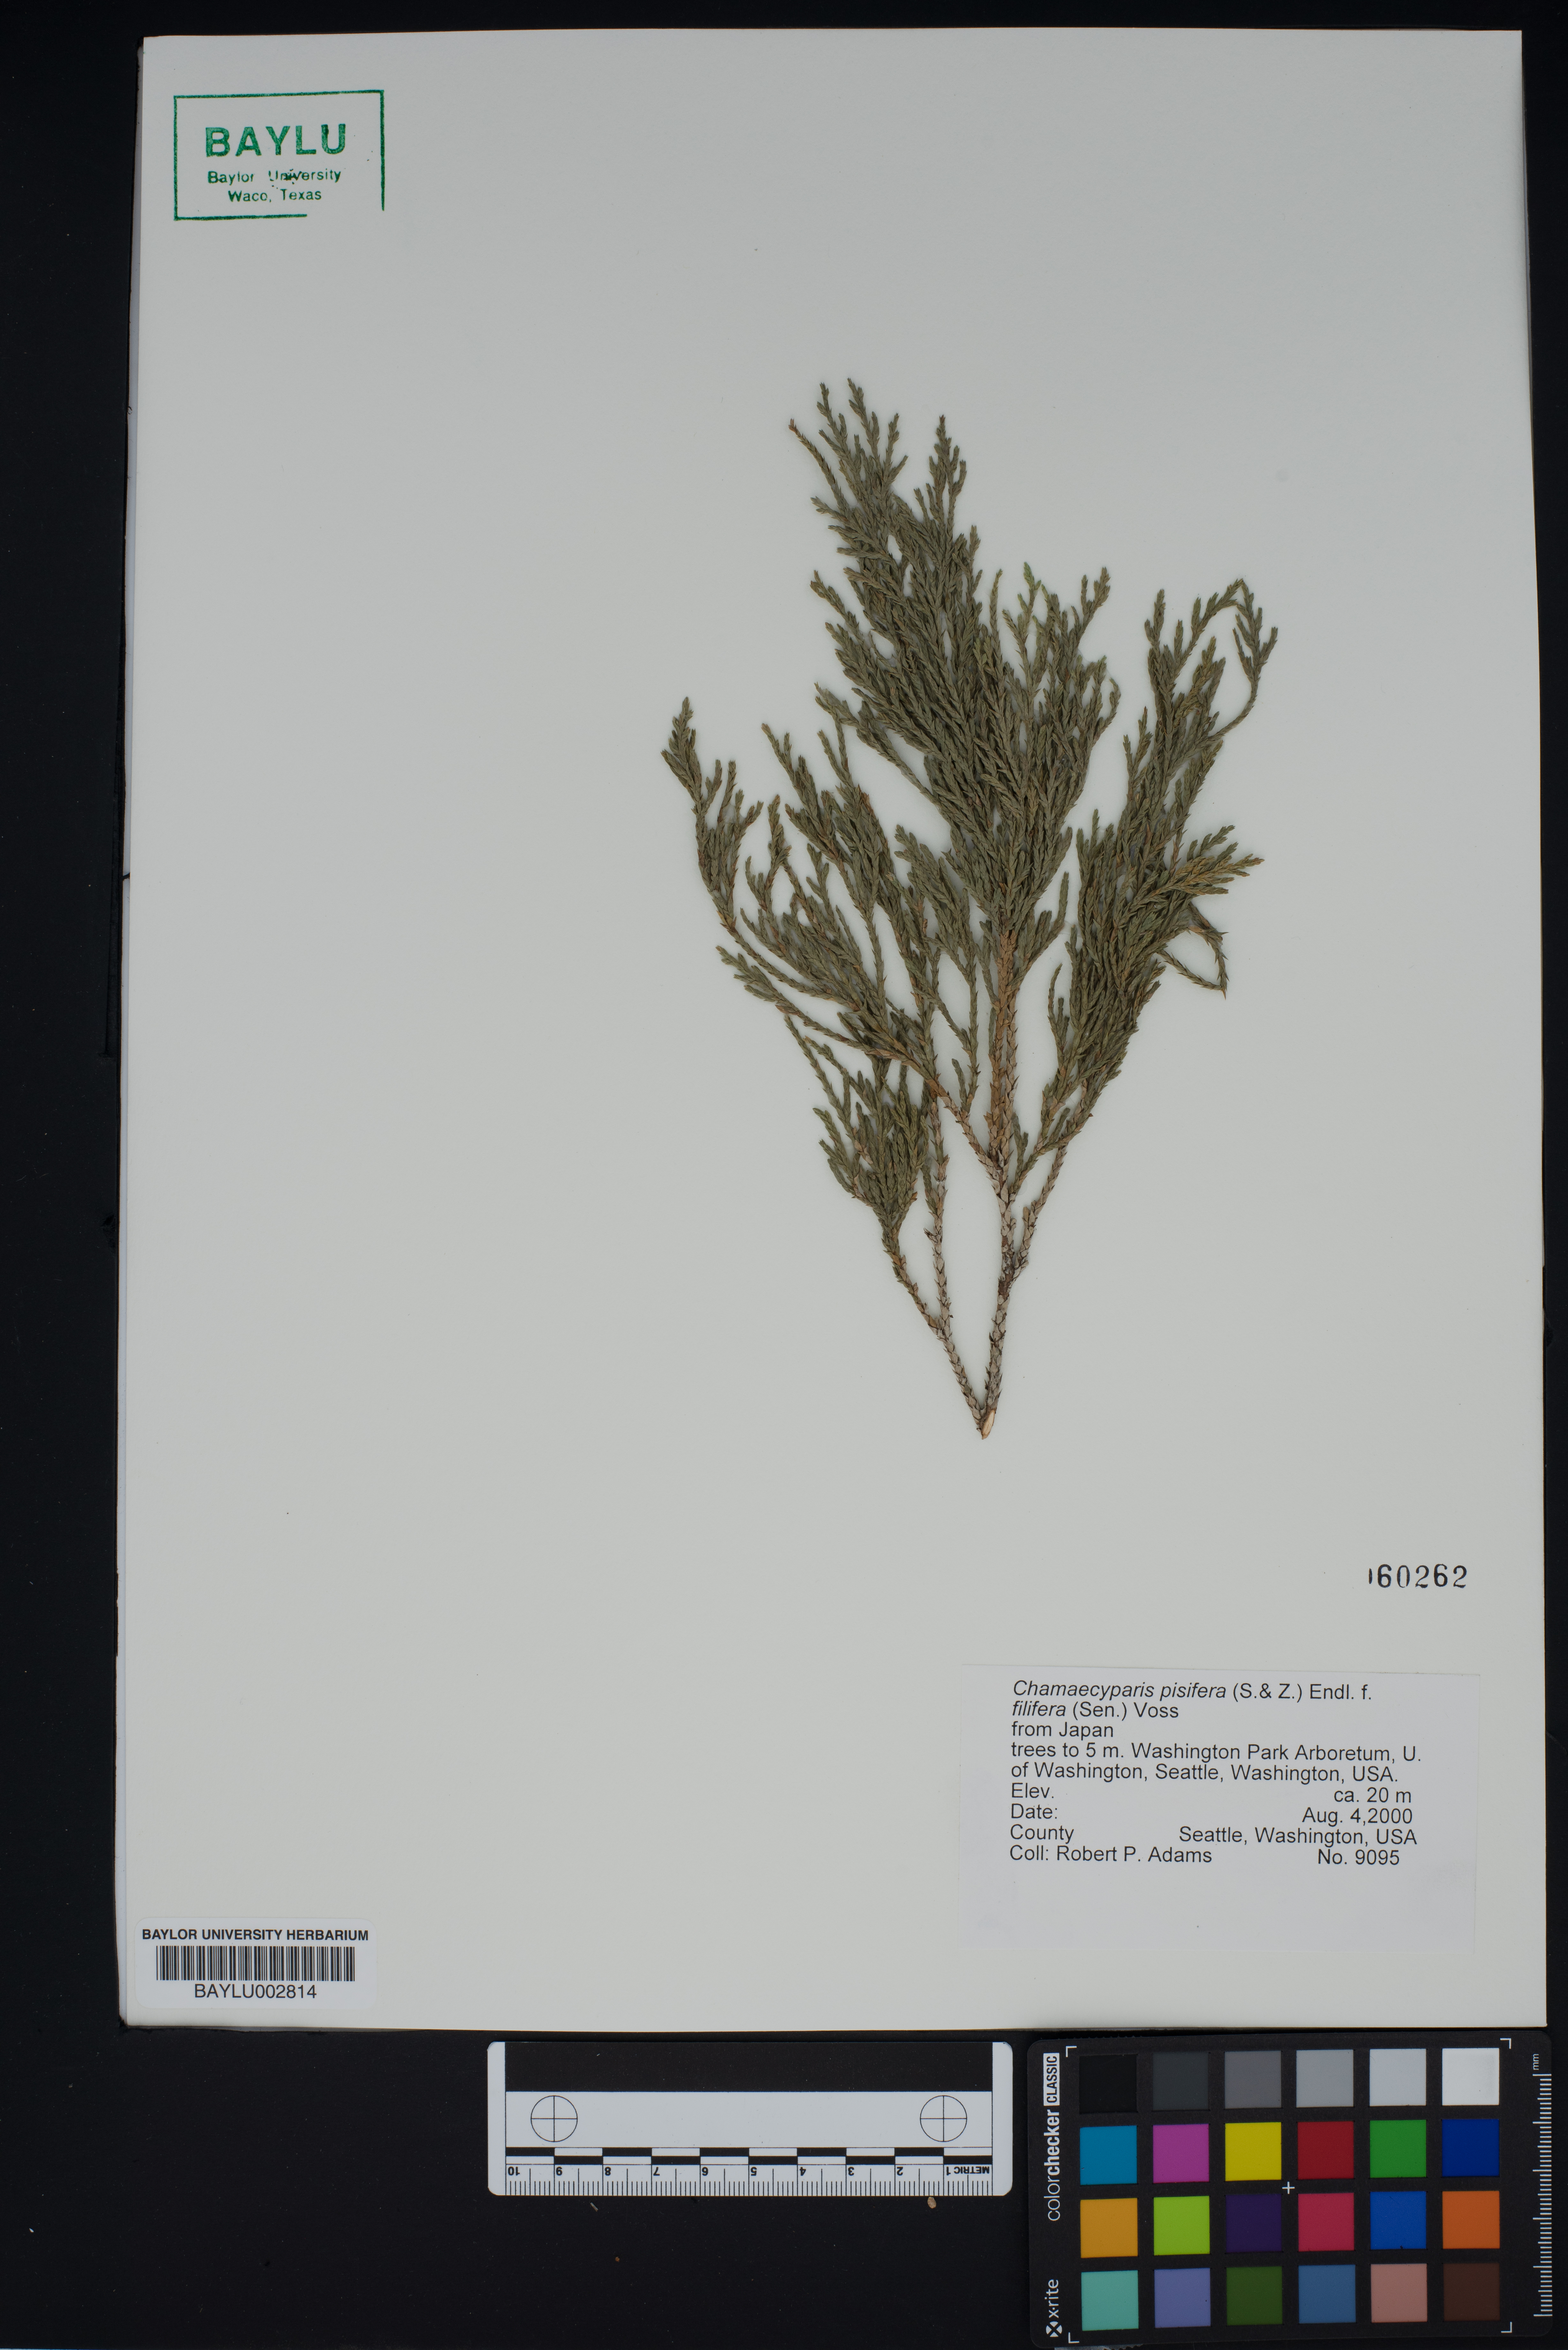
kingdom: Plantae
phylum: Tracheophyta
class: Pinopsida
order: Pinales
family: Cupressaceae
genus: Chamaecyparis
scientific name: Chamaecyparis pisifera
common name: Sawara cypress
